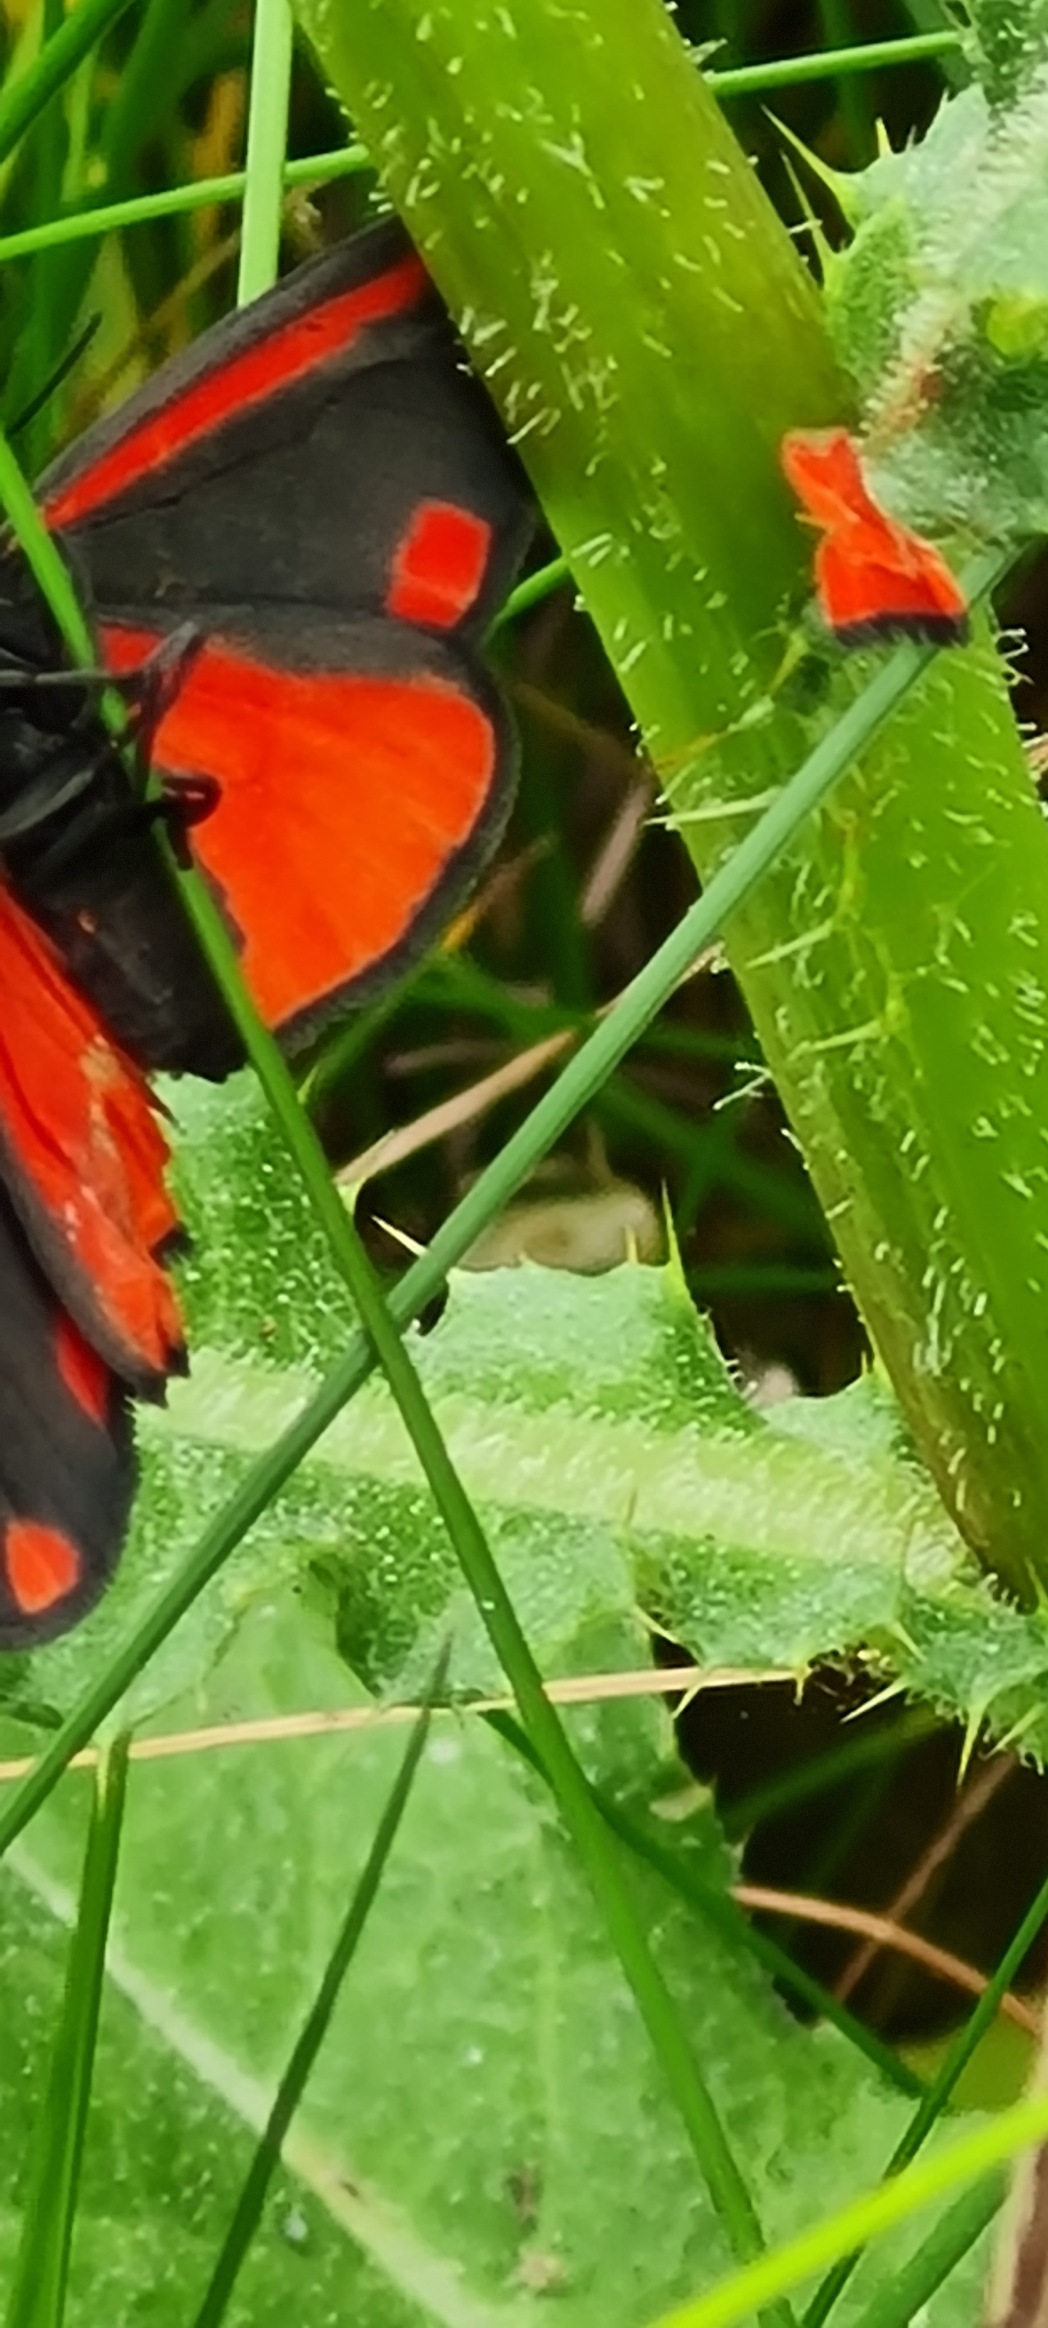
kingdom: Animalia
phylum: Arthropoda
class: Insecta
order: Lepidoptera
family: Erebidae
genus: Tyria
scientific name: Tyria jacobaeae
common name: Blodplet
